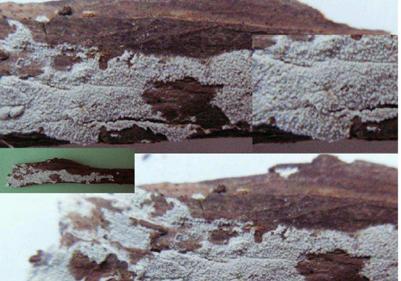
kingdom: Fungi
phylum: Basidiomycota
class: Agaricomycetes
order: Hymenochaetales
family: Schizoporaceae
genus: Xylodon
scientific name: Xylodon brevisetus
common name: tætvortet tandsvamp
